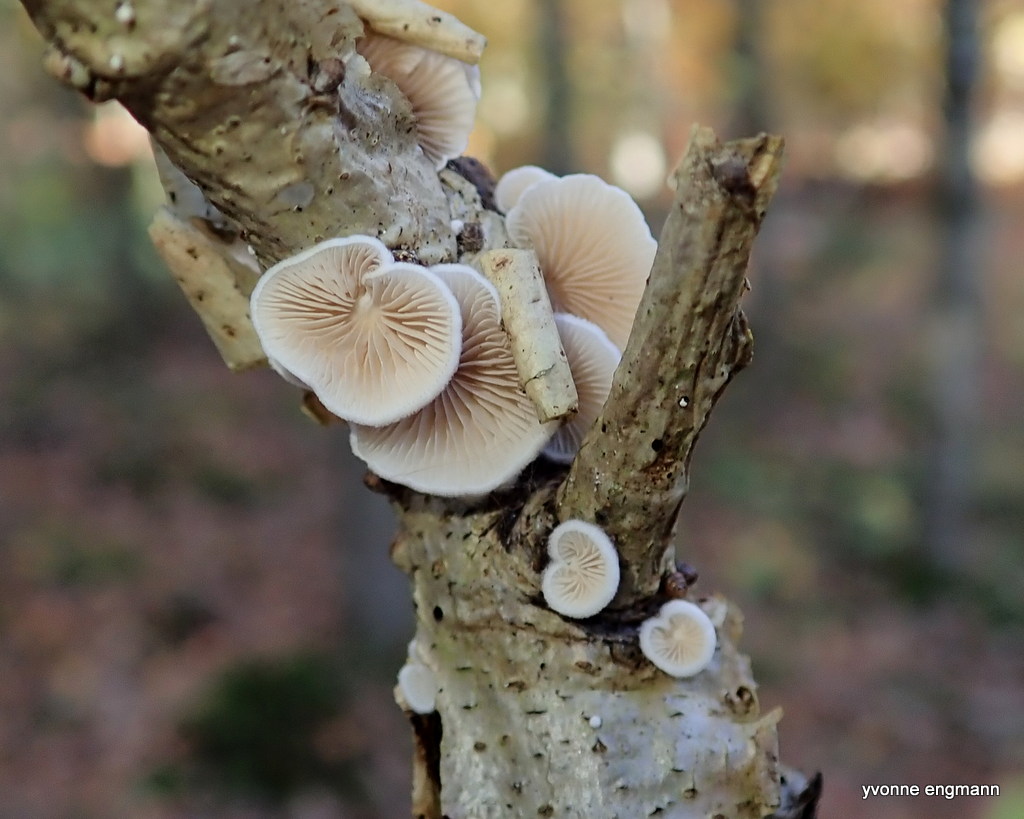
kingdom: Fungi
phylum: Basidiomycota
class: Agaricomycetes
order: Agaricales
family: Crepidotaceae
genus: Crepidotus
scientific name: Crepidotus
